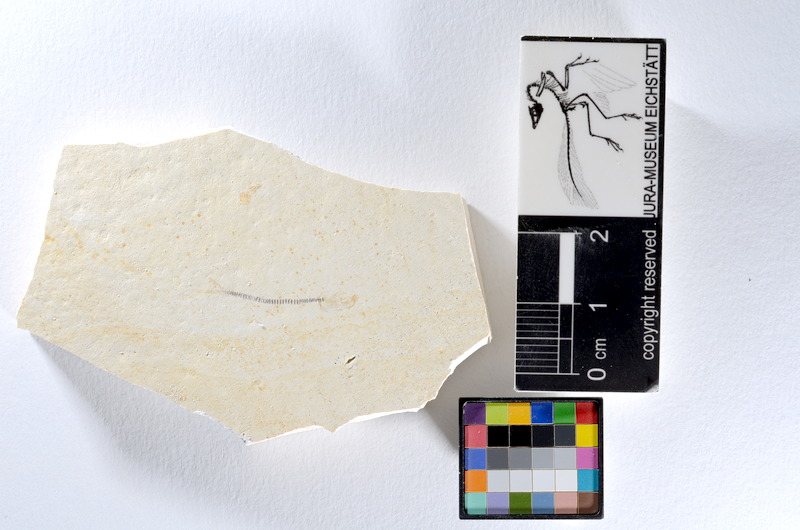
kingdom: Animalia
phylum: Chordata
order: Salmoniformes
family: Orthogonikleithridae
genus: Orthogonikleithrus
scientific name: Orthogonikleithrus hoelli
